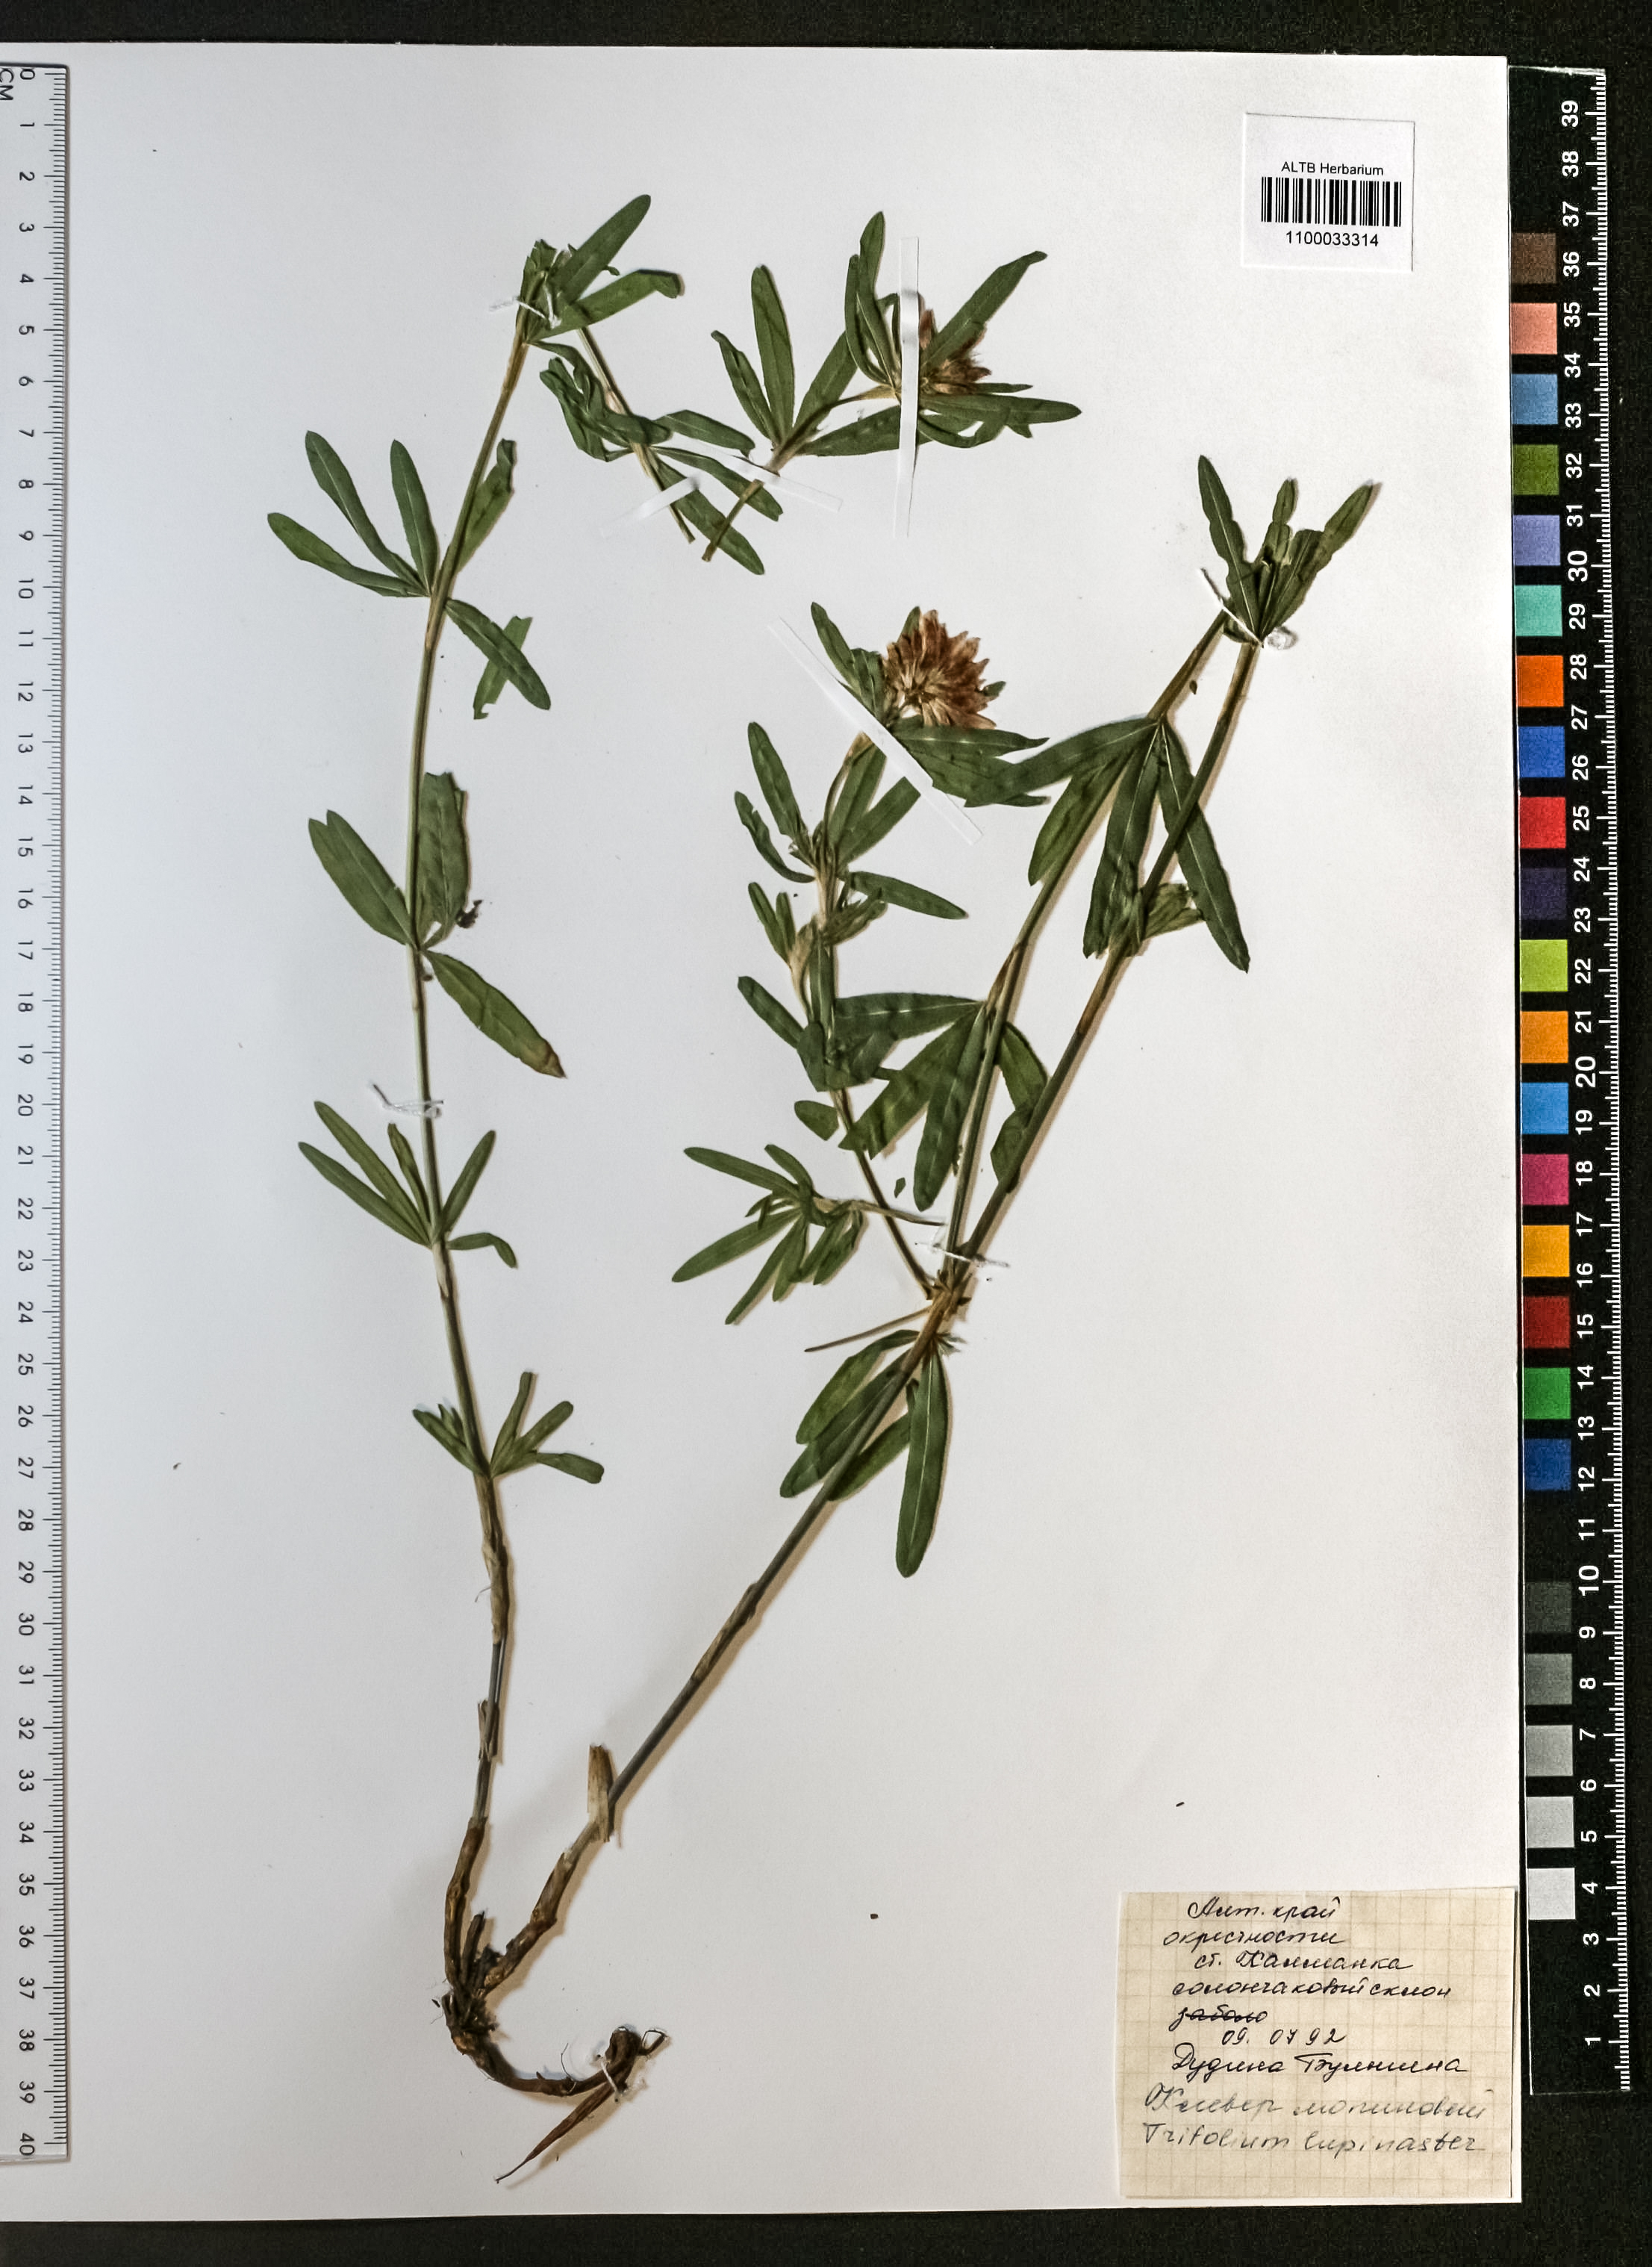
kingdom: Plantae
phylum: Tracheophyta
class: Magnoliopsida
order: Fabales
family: Fabaceae
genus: Trifolium
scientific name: Trifolium lupinaster
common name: Lupine clover
